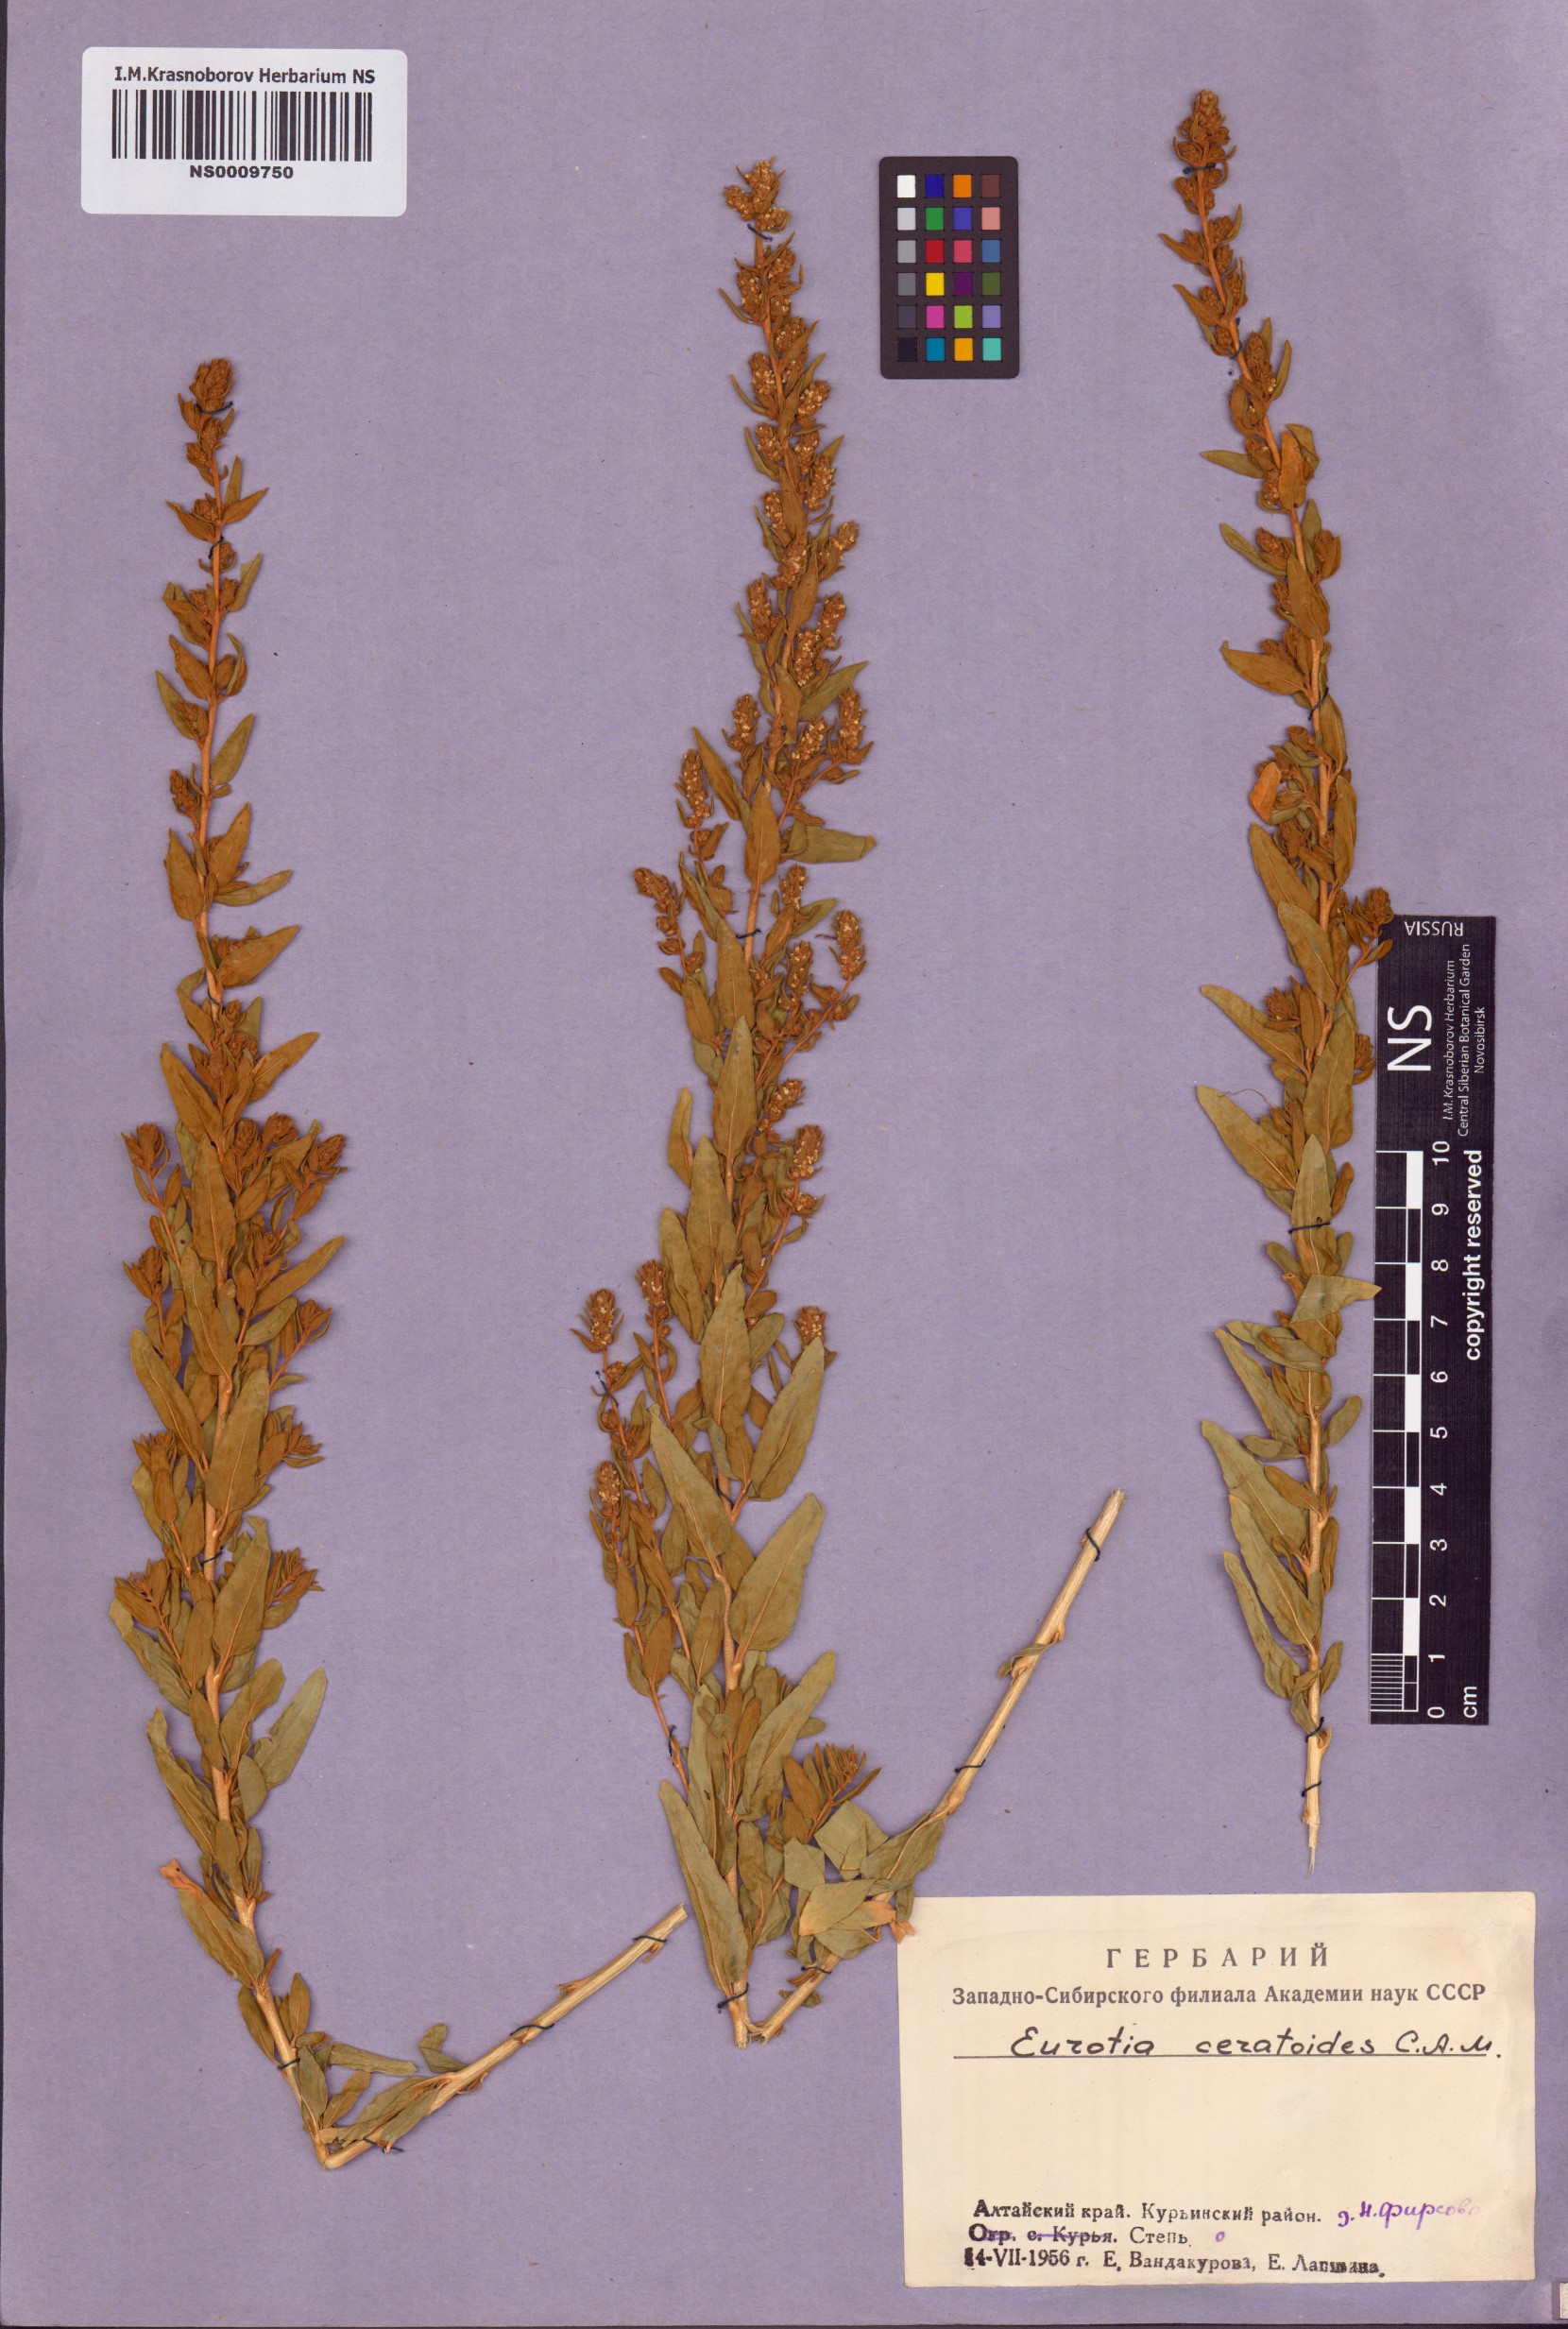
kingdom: Plantae
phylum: Tracheophyta
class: Magnoliopsida
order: Caryophyllales
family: Amaranthaceae
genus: Krascheninnikovia
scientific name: Krascheninnikovia ceratoides
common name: Pamirian winterfat
